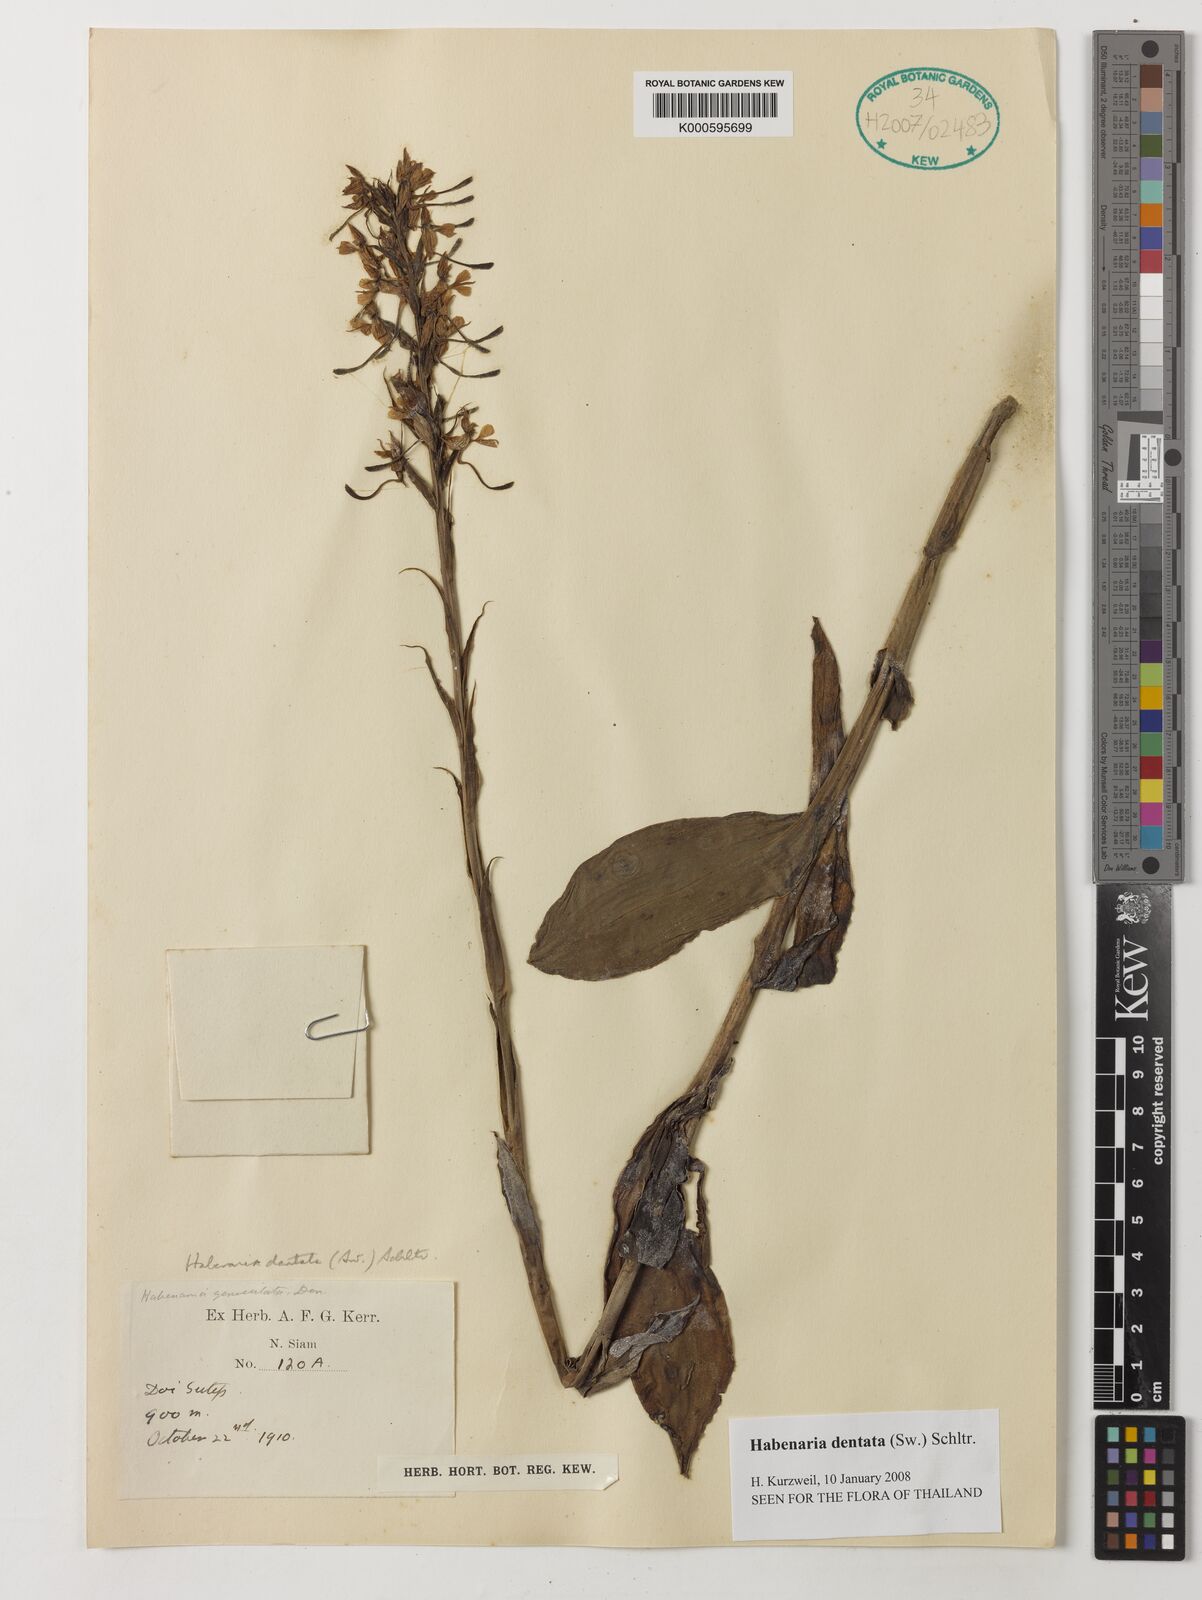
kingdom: Plantae
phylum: Tracheophyta
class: Liliopsida
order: Asparagales
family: Orchidaceae
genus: Habenaria
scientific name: Habenaria dentata
